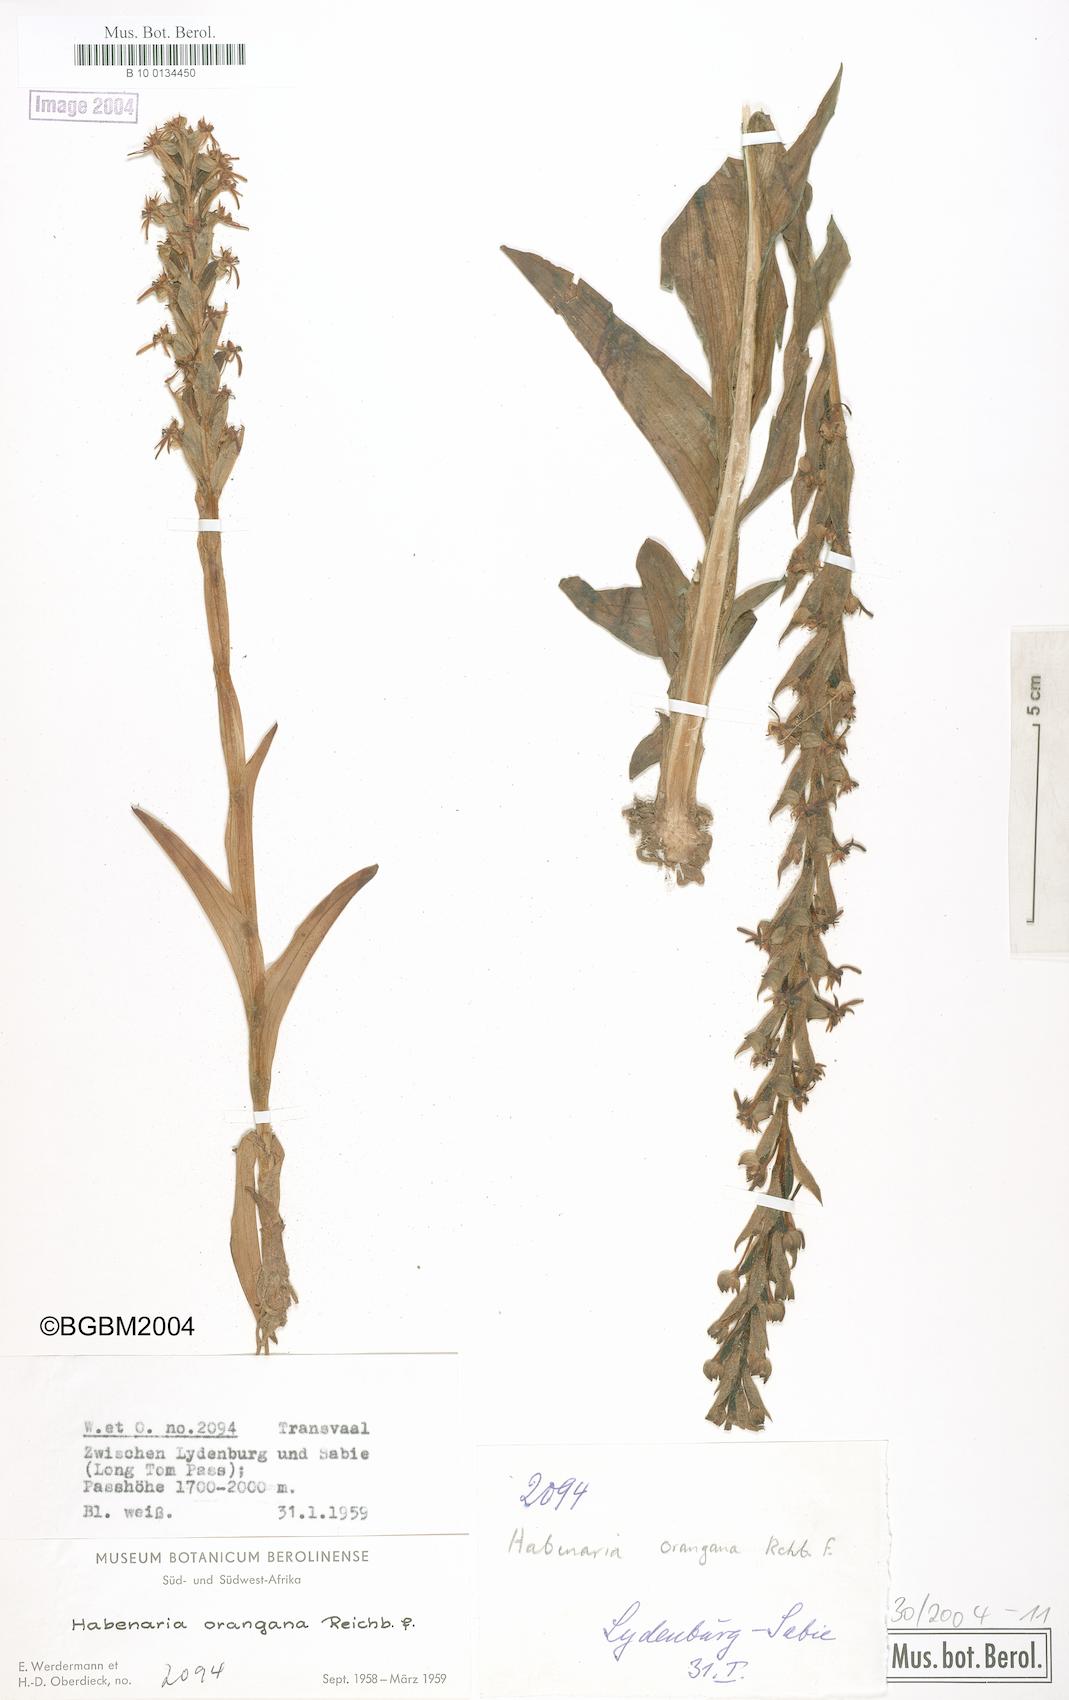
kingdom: Plantae
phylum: Tracheophyta
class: Liliopsida
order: Asparagales
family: Orchidaceae
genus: Habenaria
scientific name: Habenaria dives
